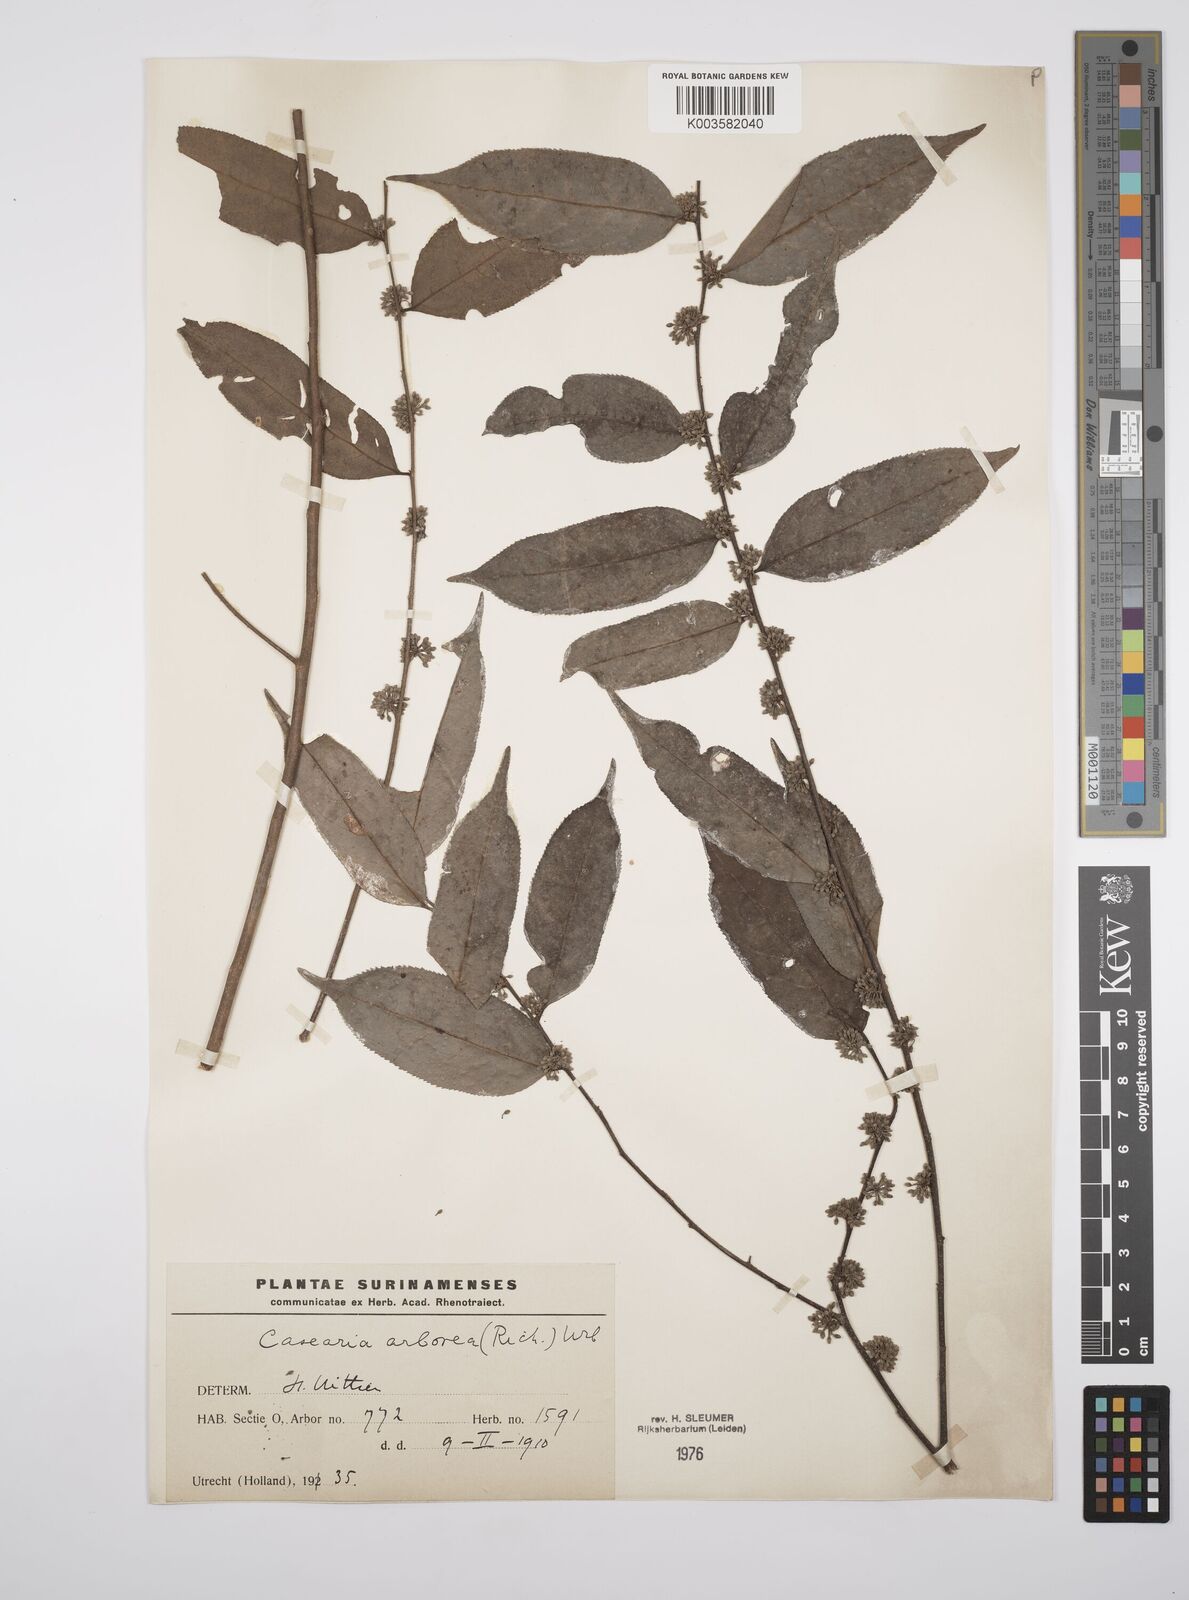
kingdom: Plantae
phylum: Tracheophyta
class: Magnoliopsida
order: Malpighiales
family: Salicaceae
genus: Casearia
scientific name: Casearia arborea
